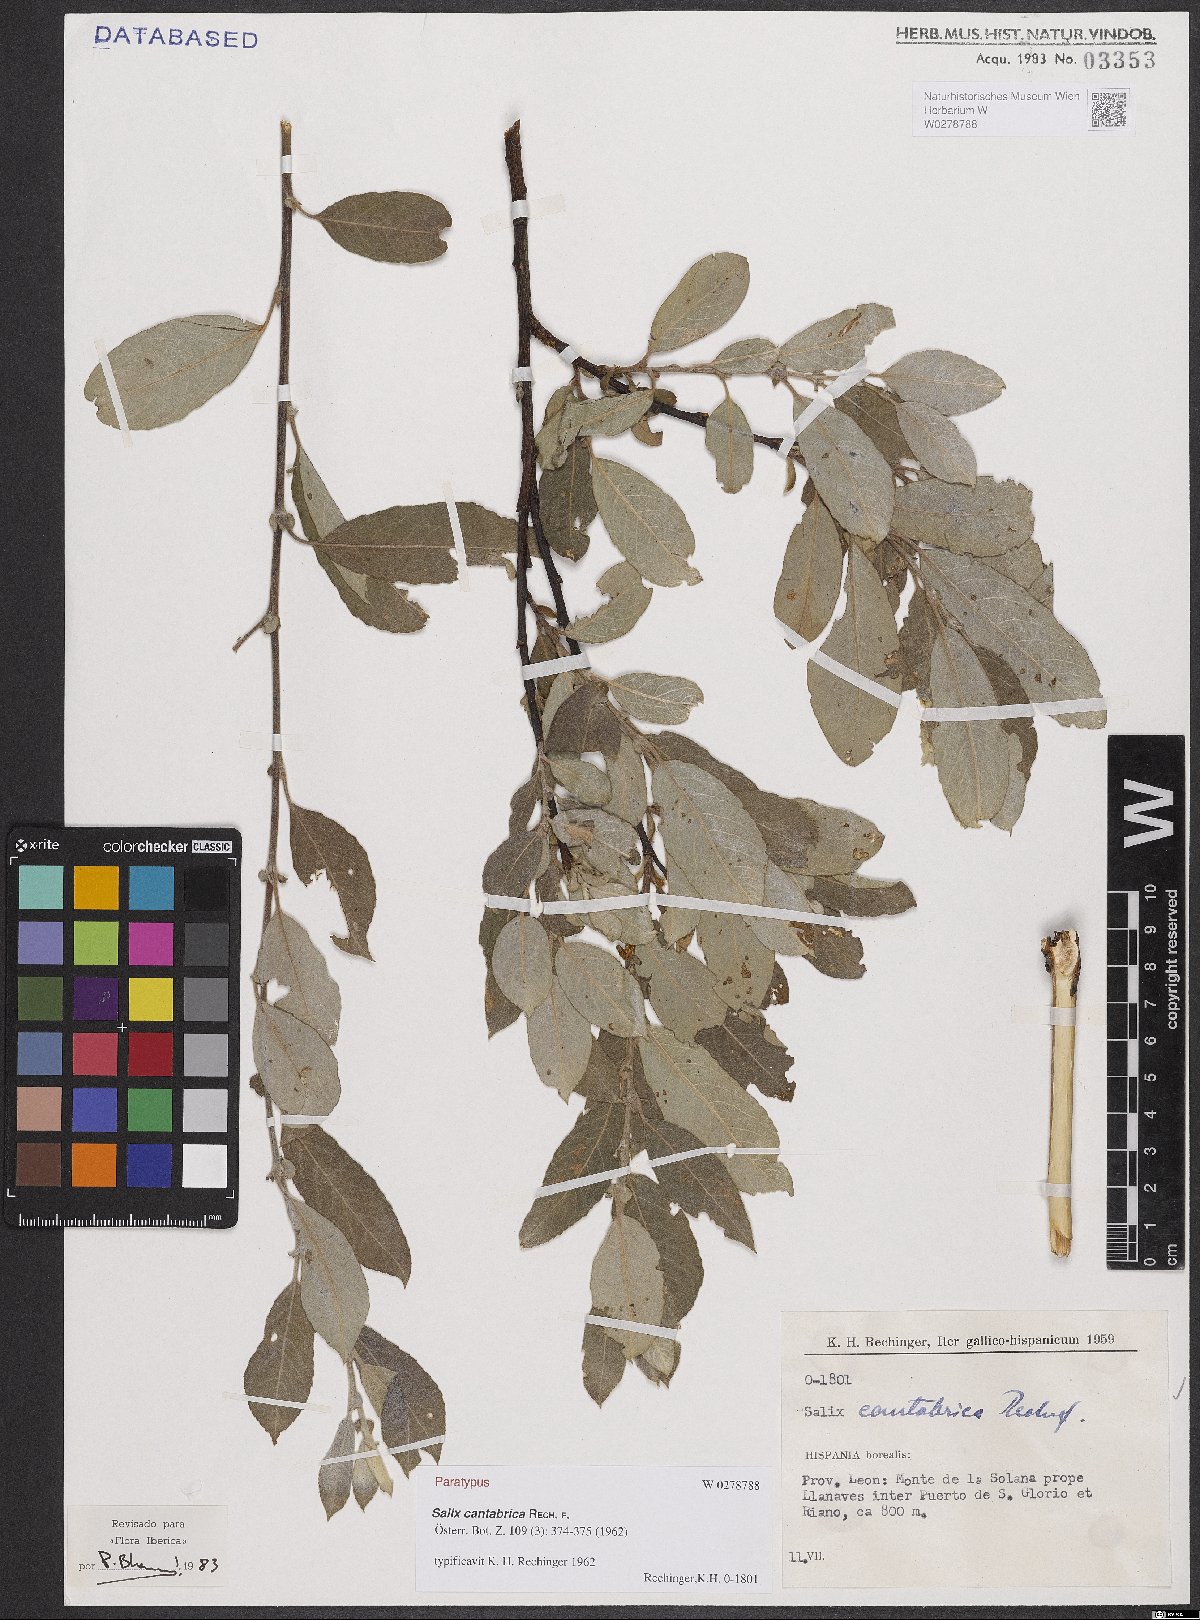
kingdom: Plantae
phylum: Tracheophyta
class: Magnoliopsida
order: Malpighiales
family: Salicaceae
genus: Salix
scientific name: Salix cantabrica
